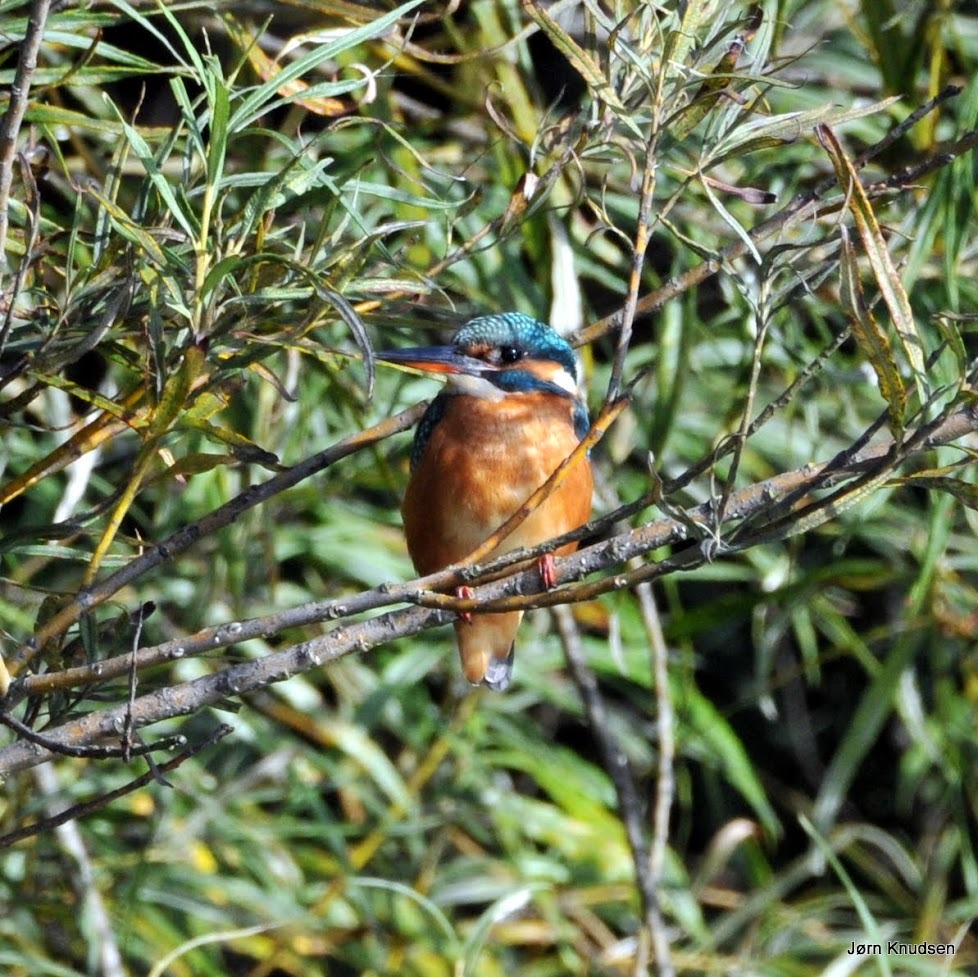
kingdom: Animalia
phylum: Chordata
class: Aves
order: Coraciiformes
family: Alcedinidae
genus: Alcedo
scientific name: Alcedo atthis
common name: Isfugl
